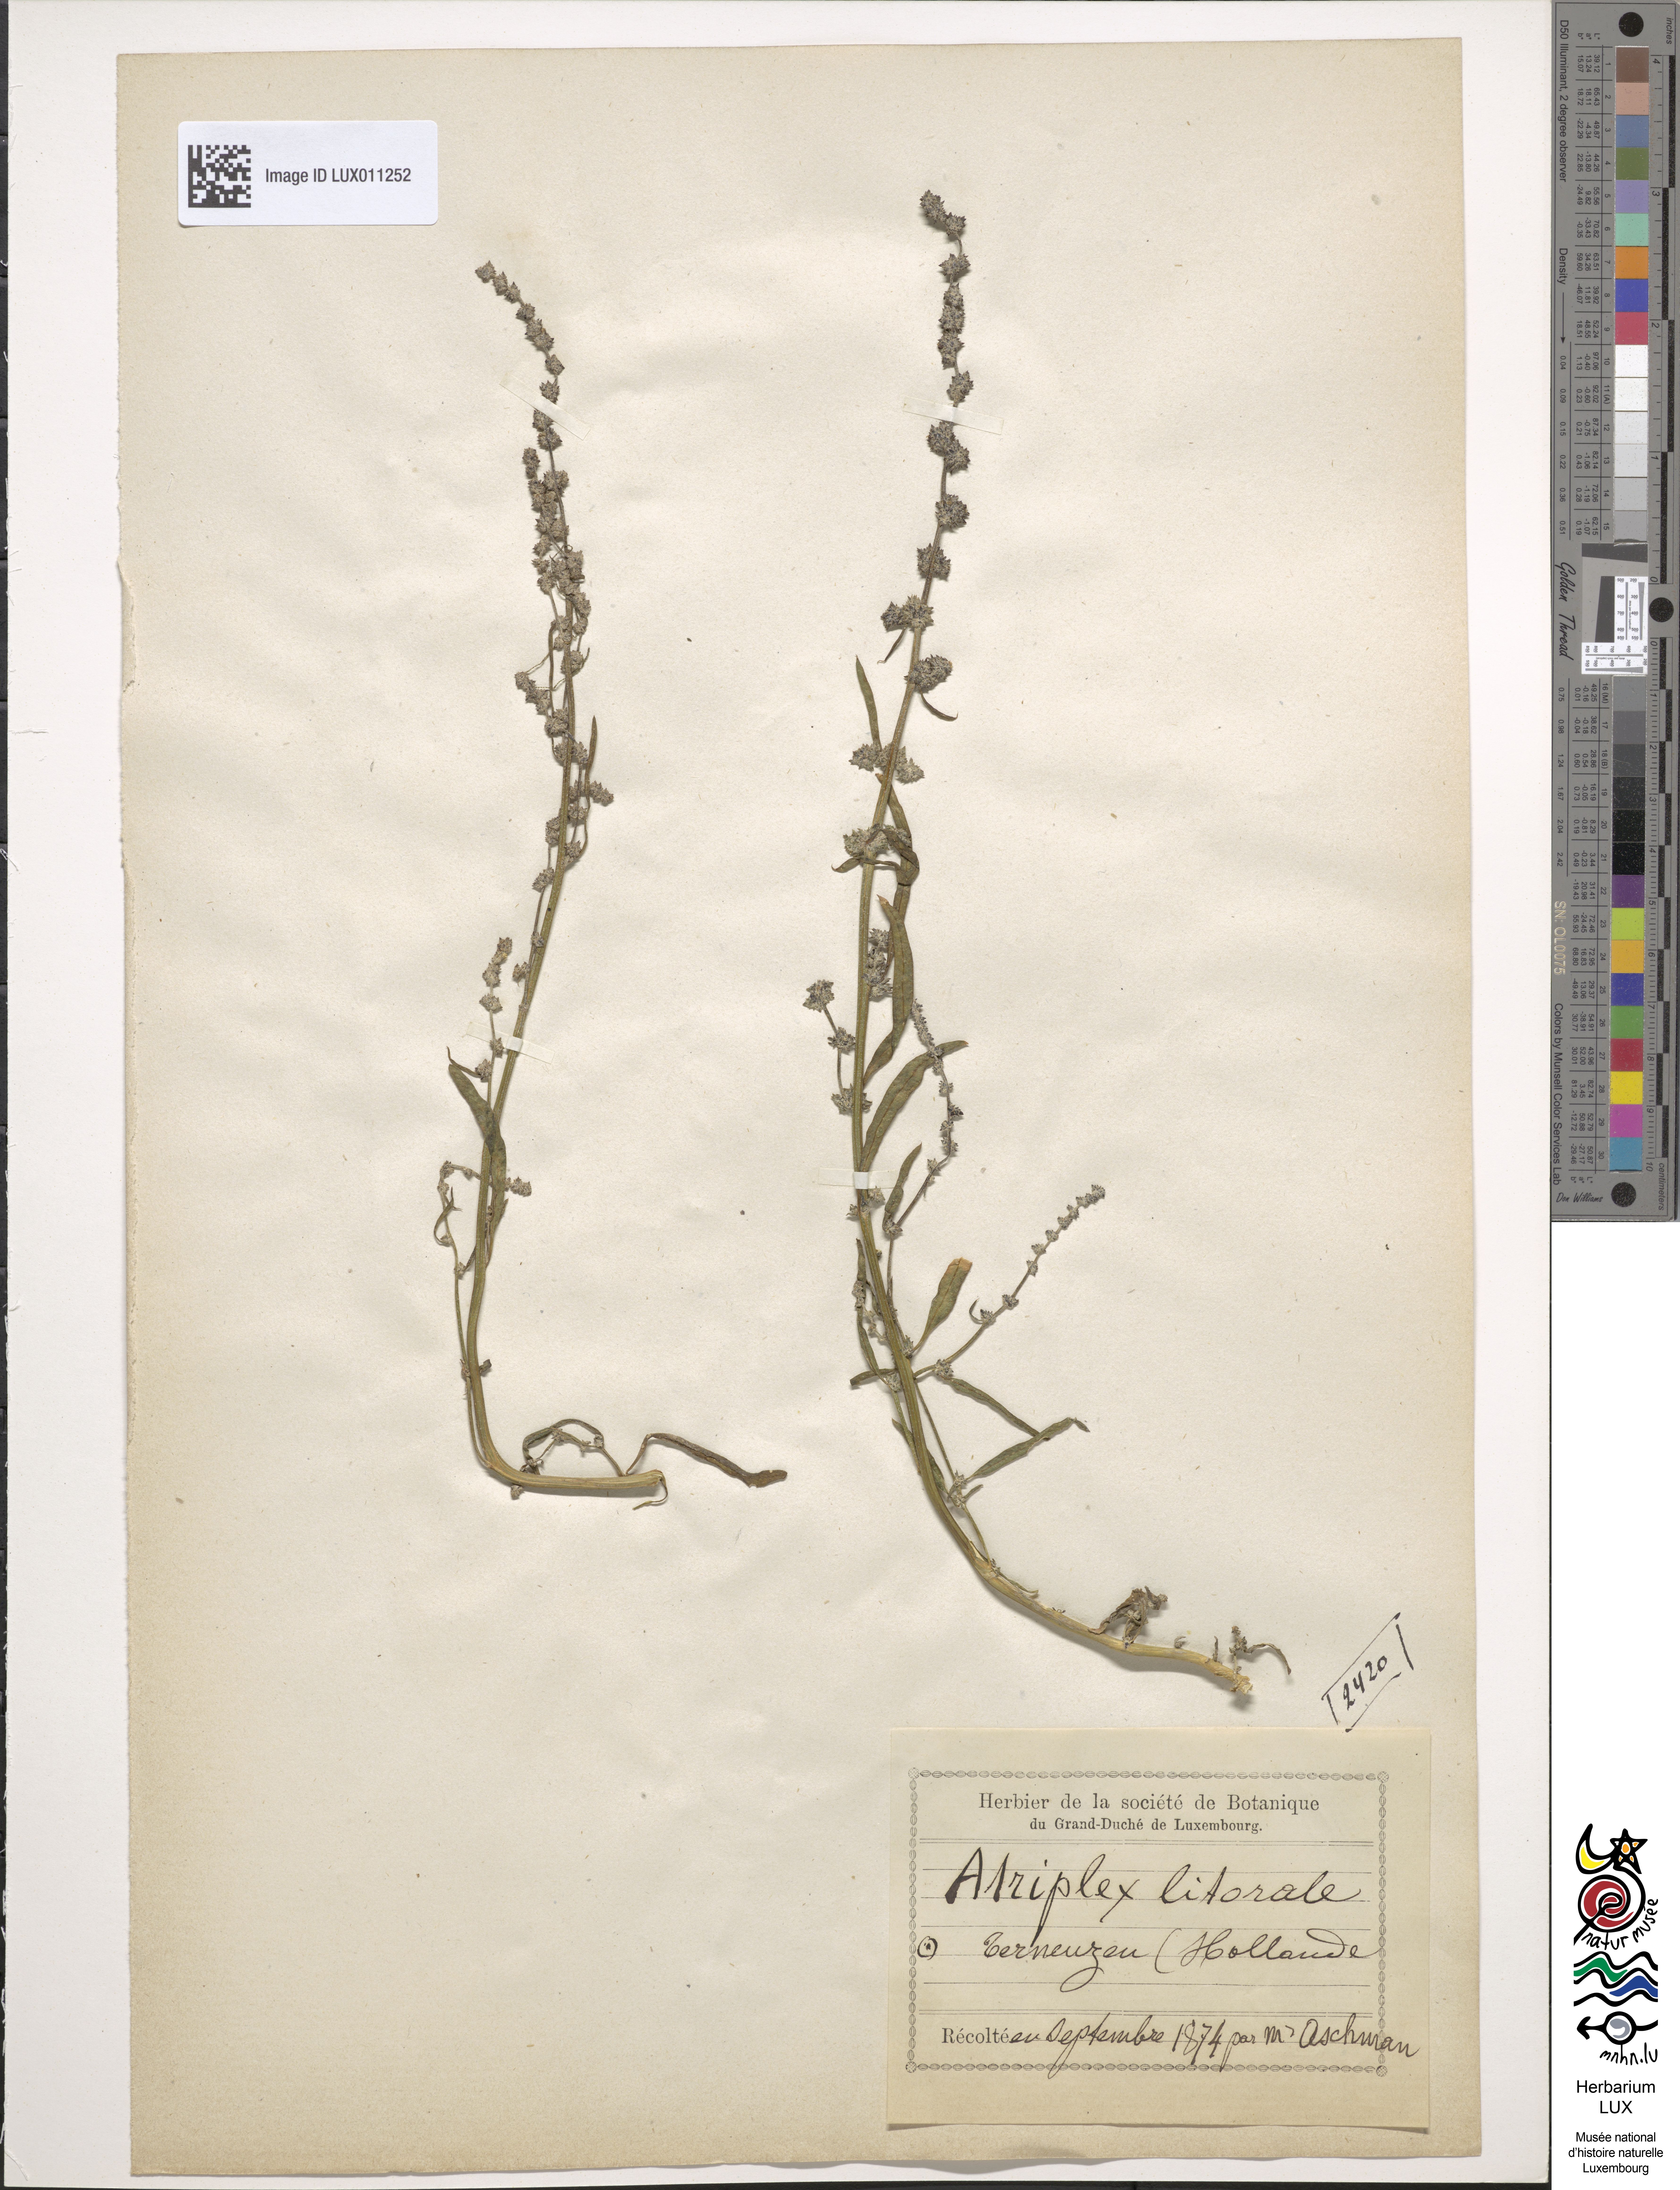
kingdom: Plantae
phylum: Tracheophyta
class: Magnoliopsida
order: Caryophyllales
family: Amaranthaceae
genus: Atriplex
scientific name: Atriplex littoralis
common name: Grass-leaved orache
